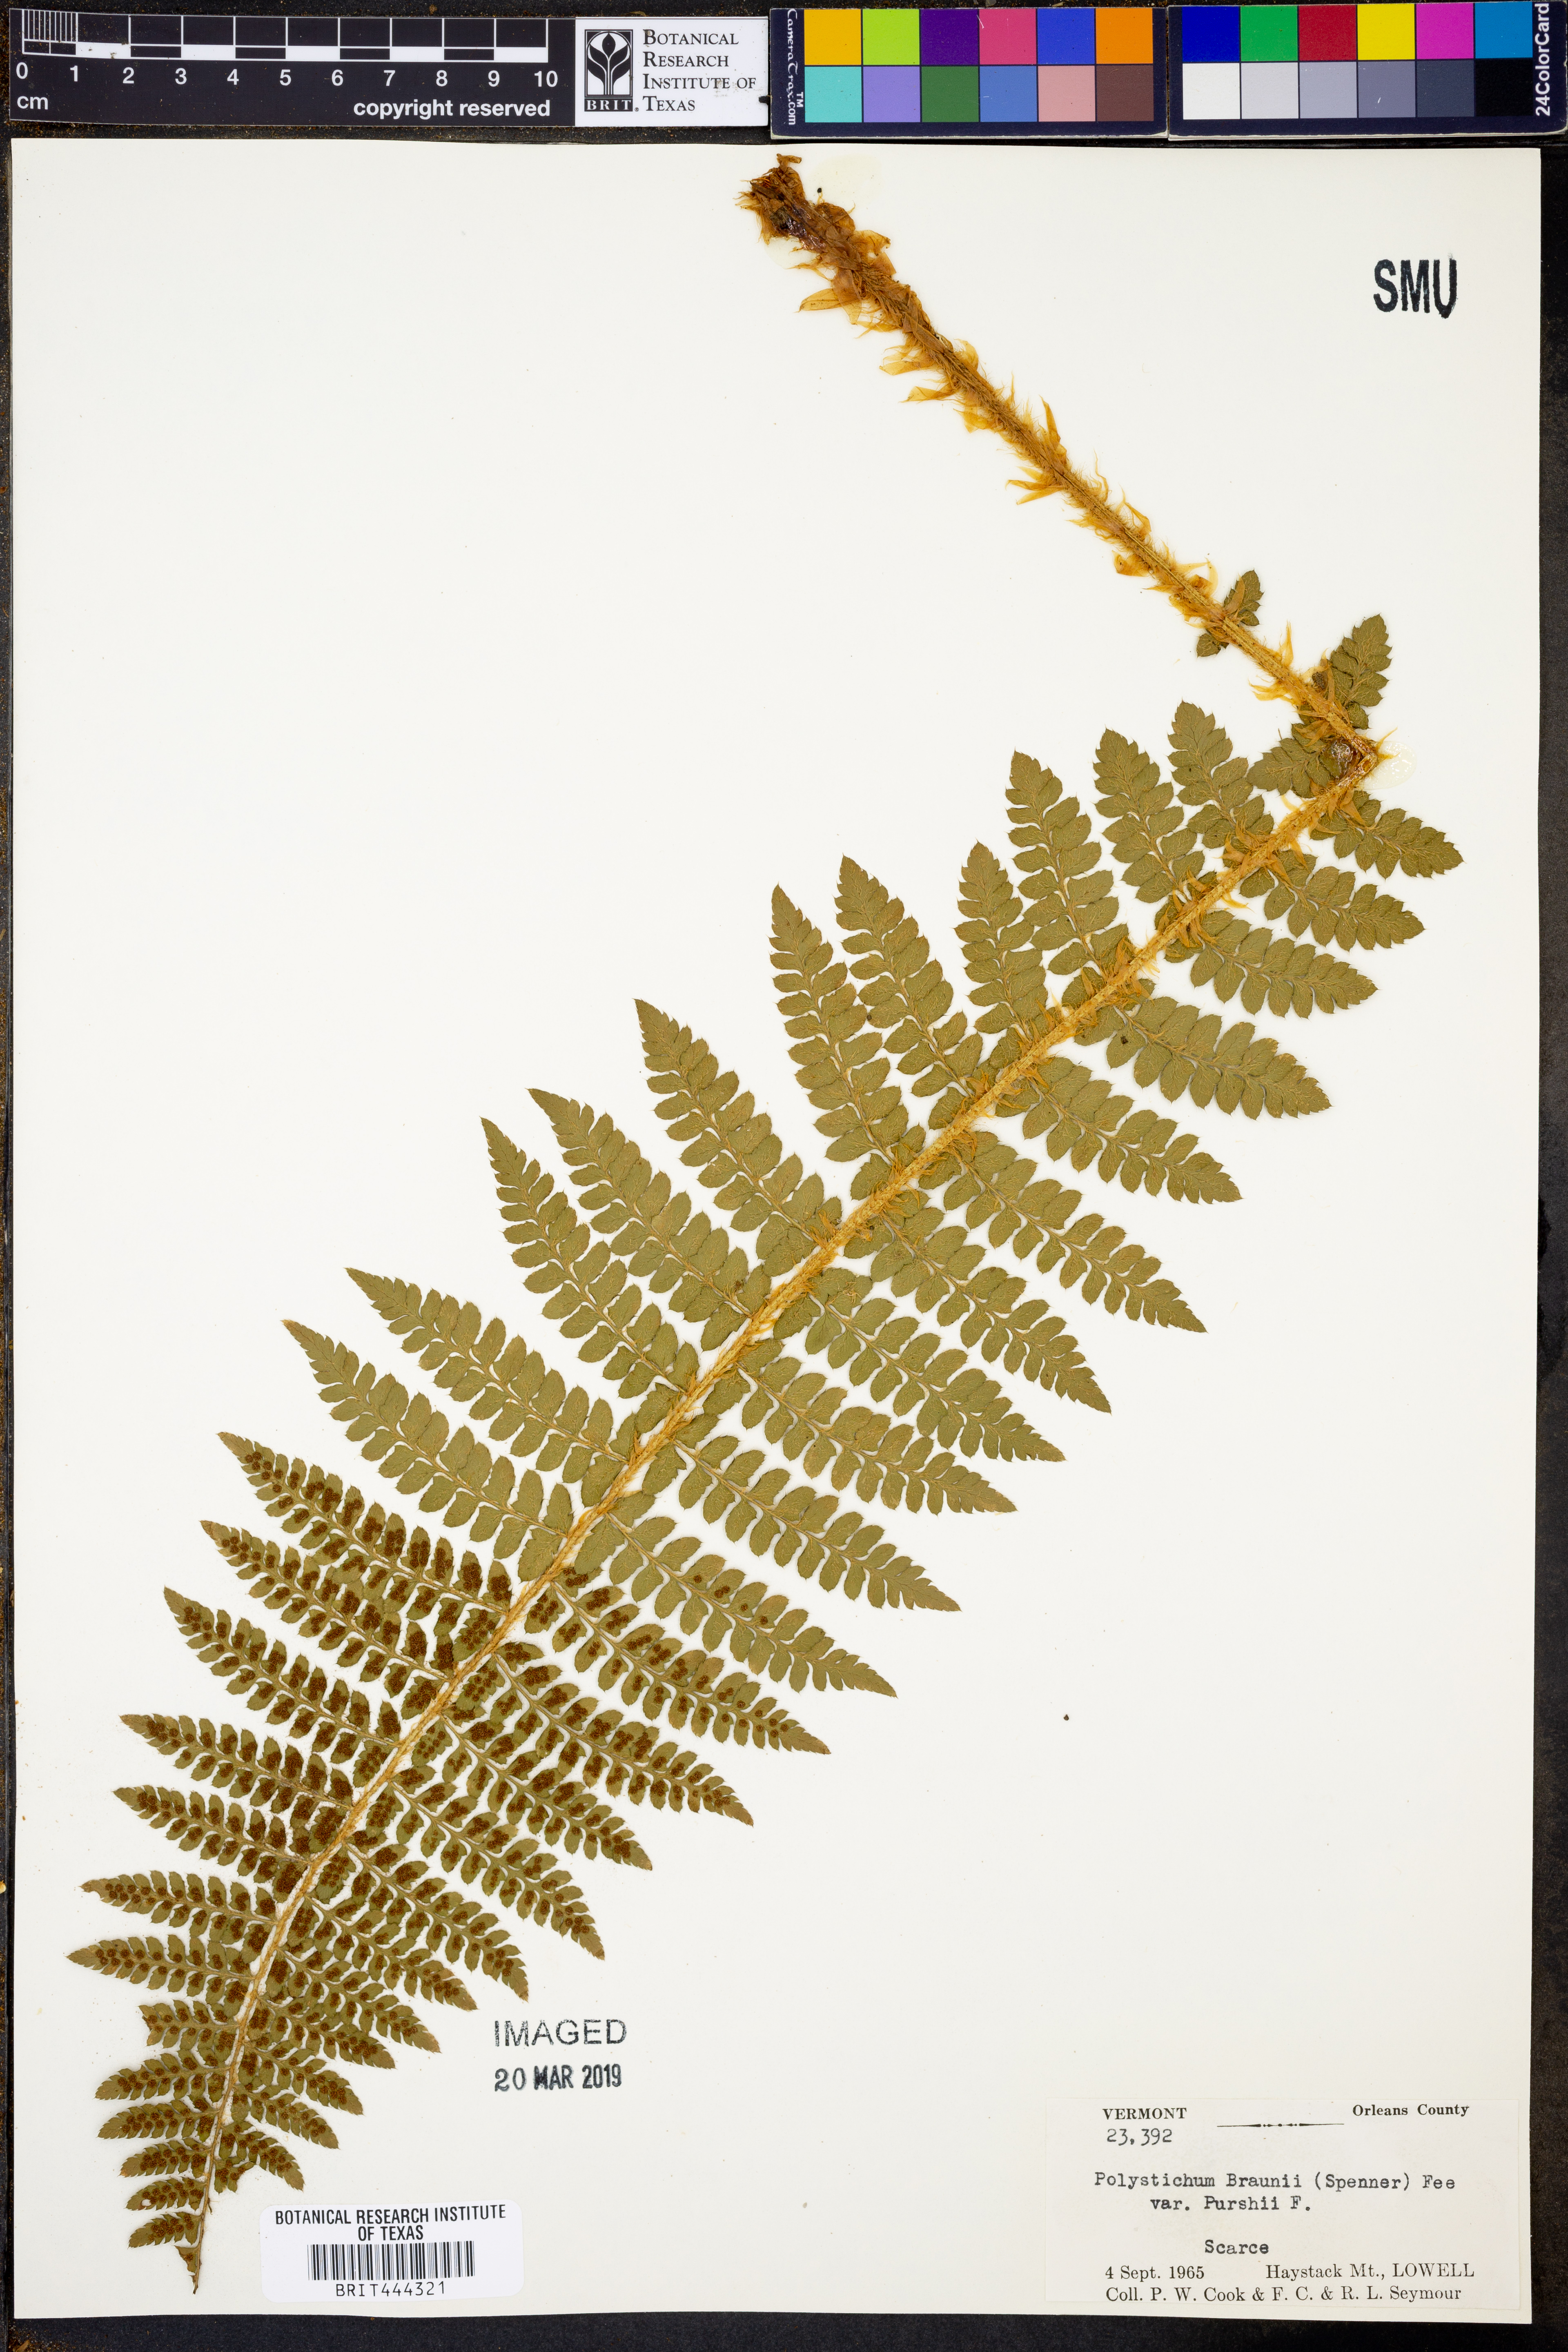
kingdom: Plantae
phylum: Tracheophyta
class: Polypodiopsida
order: Polypodiales
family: Dryopteridaceae
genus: Polystichum
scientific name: Polystichum braunii
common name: Braun's holly fern
